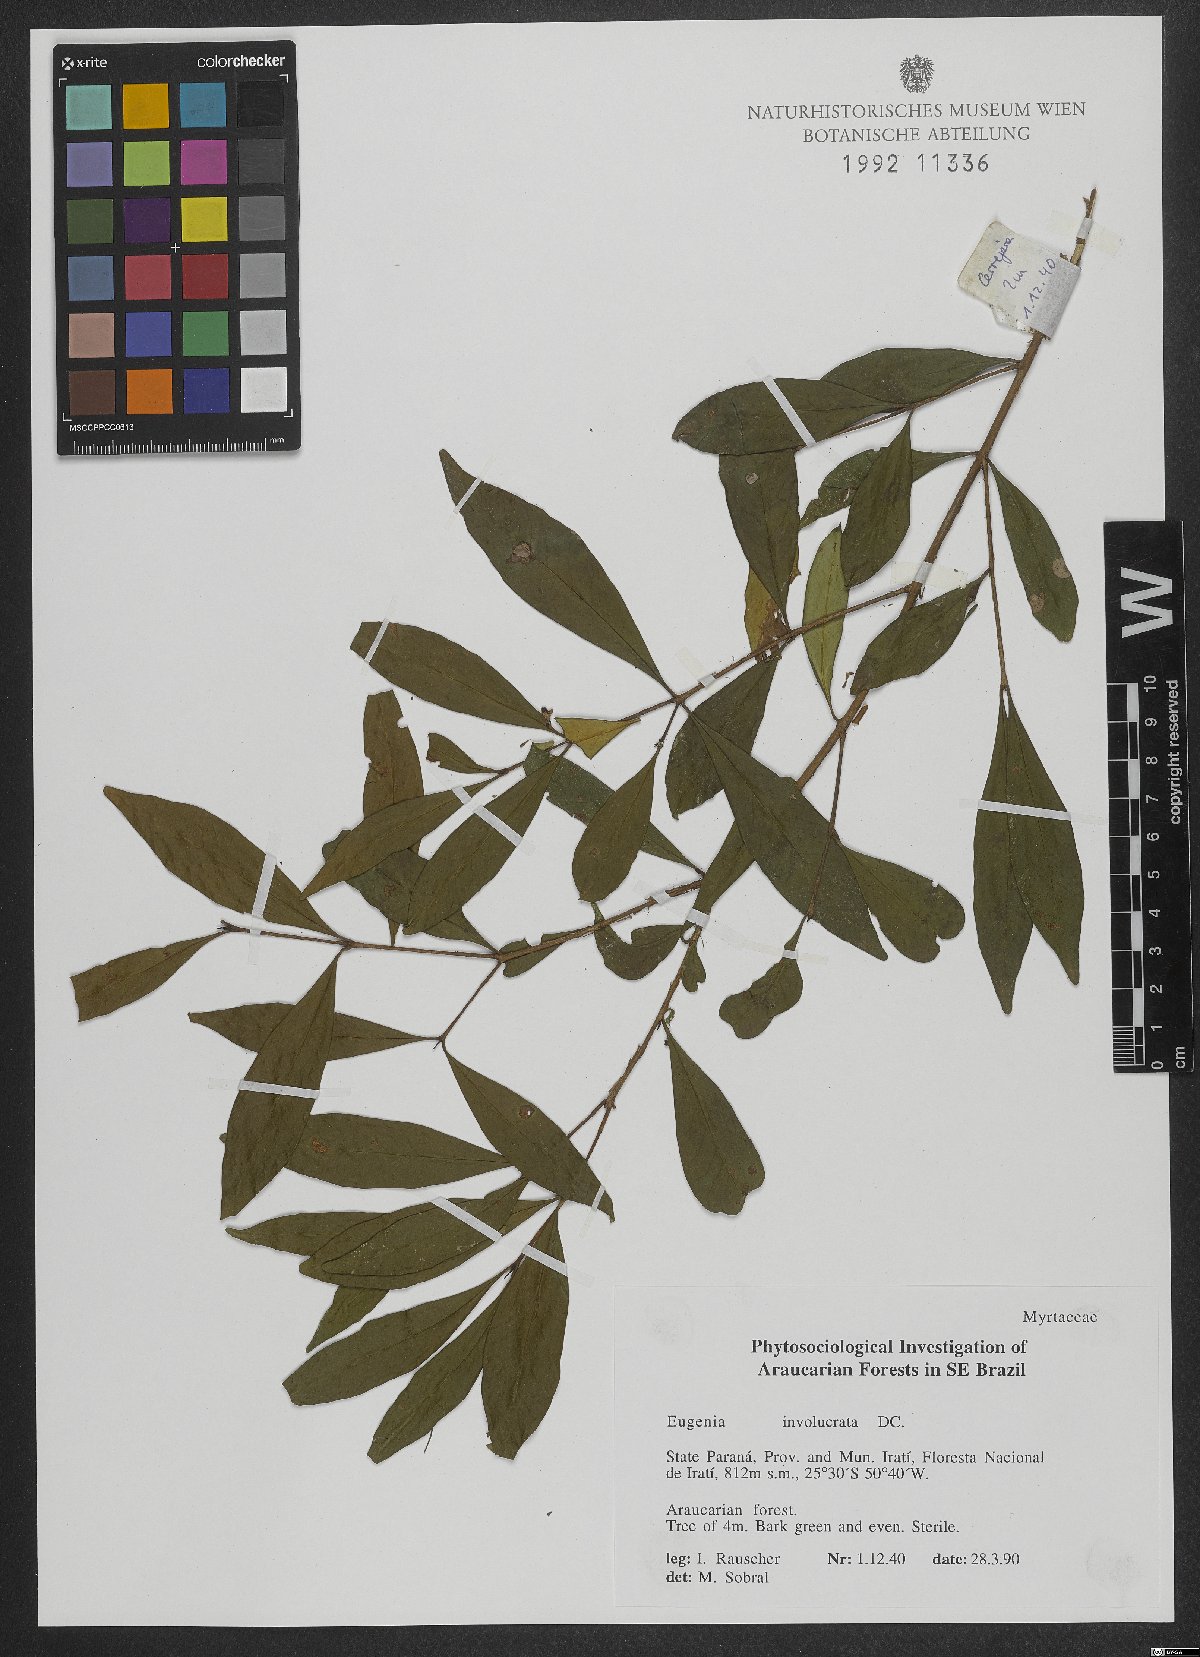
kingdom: Plantae
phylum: Tracheophyta
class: Magnoliopsida
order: Myrtales
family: Myrtaceae
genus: Eugenia
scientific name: Eugenia involucrata
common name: Cherry-of-the-rio grande
